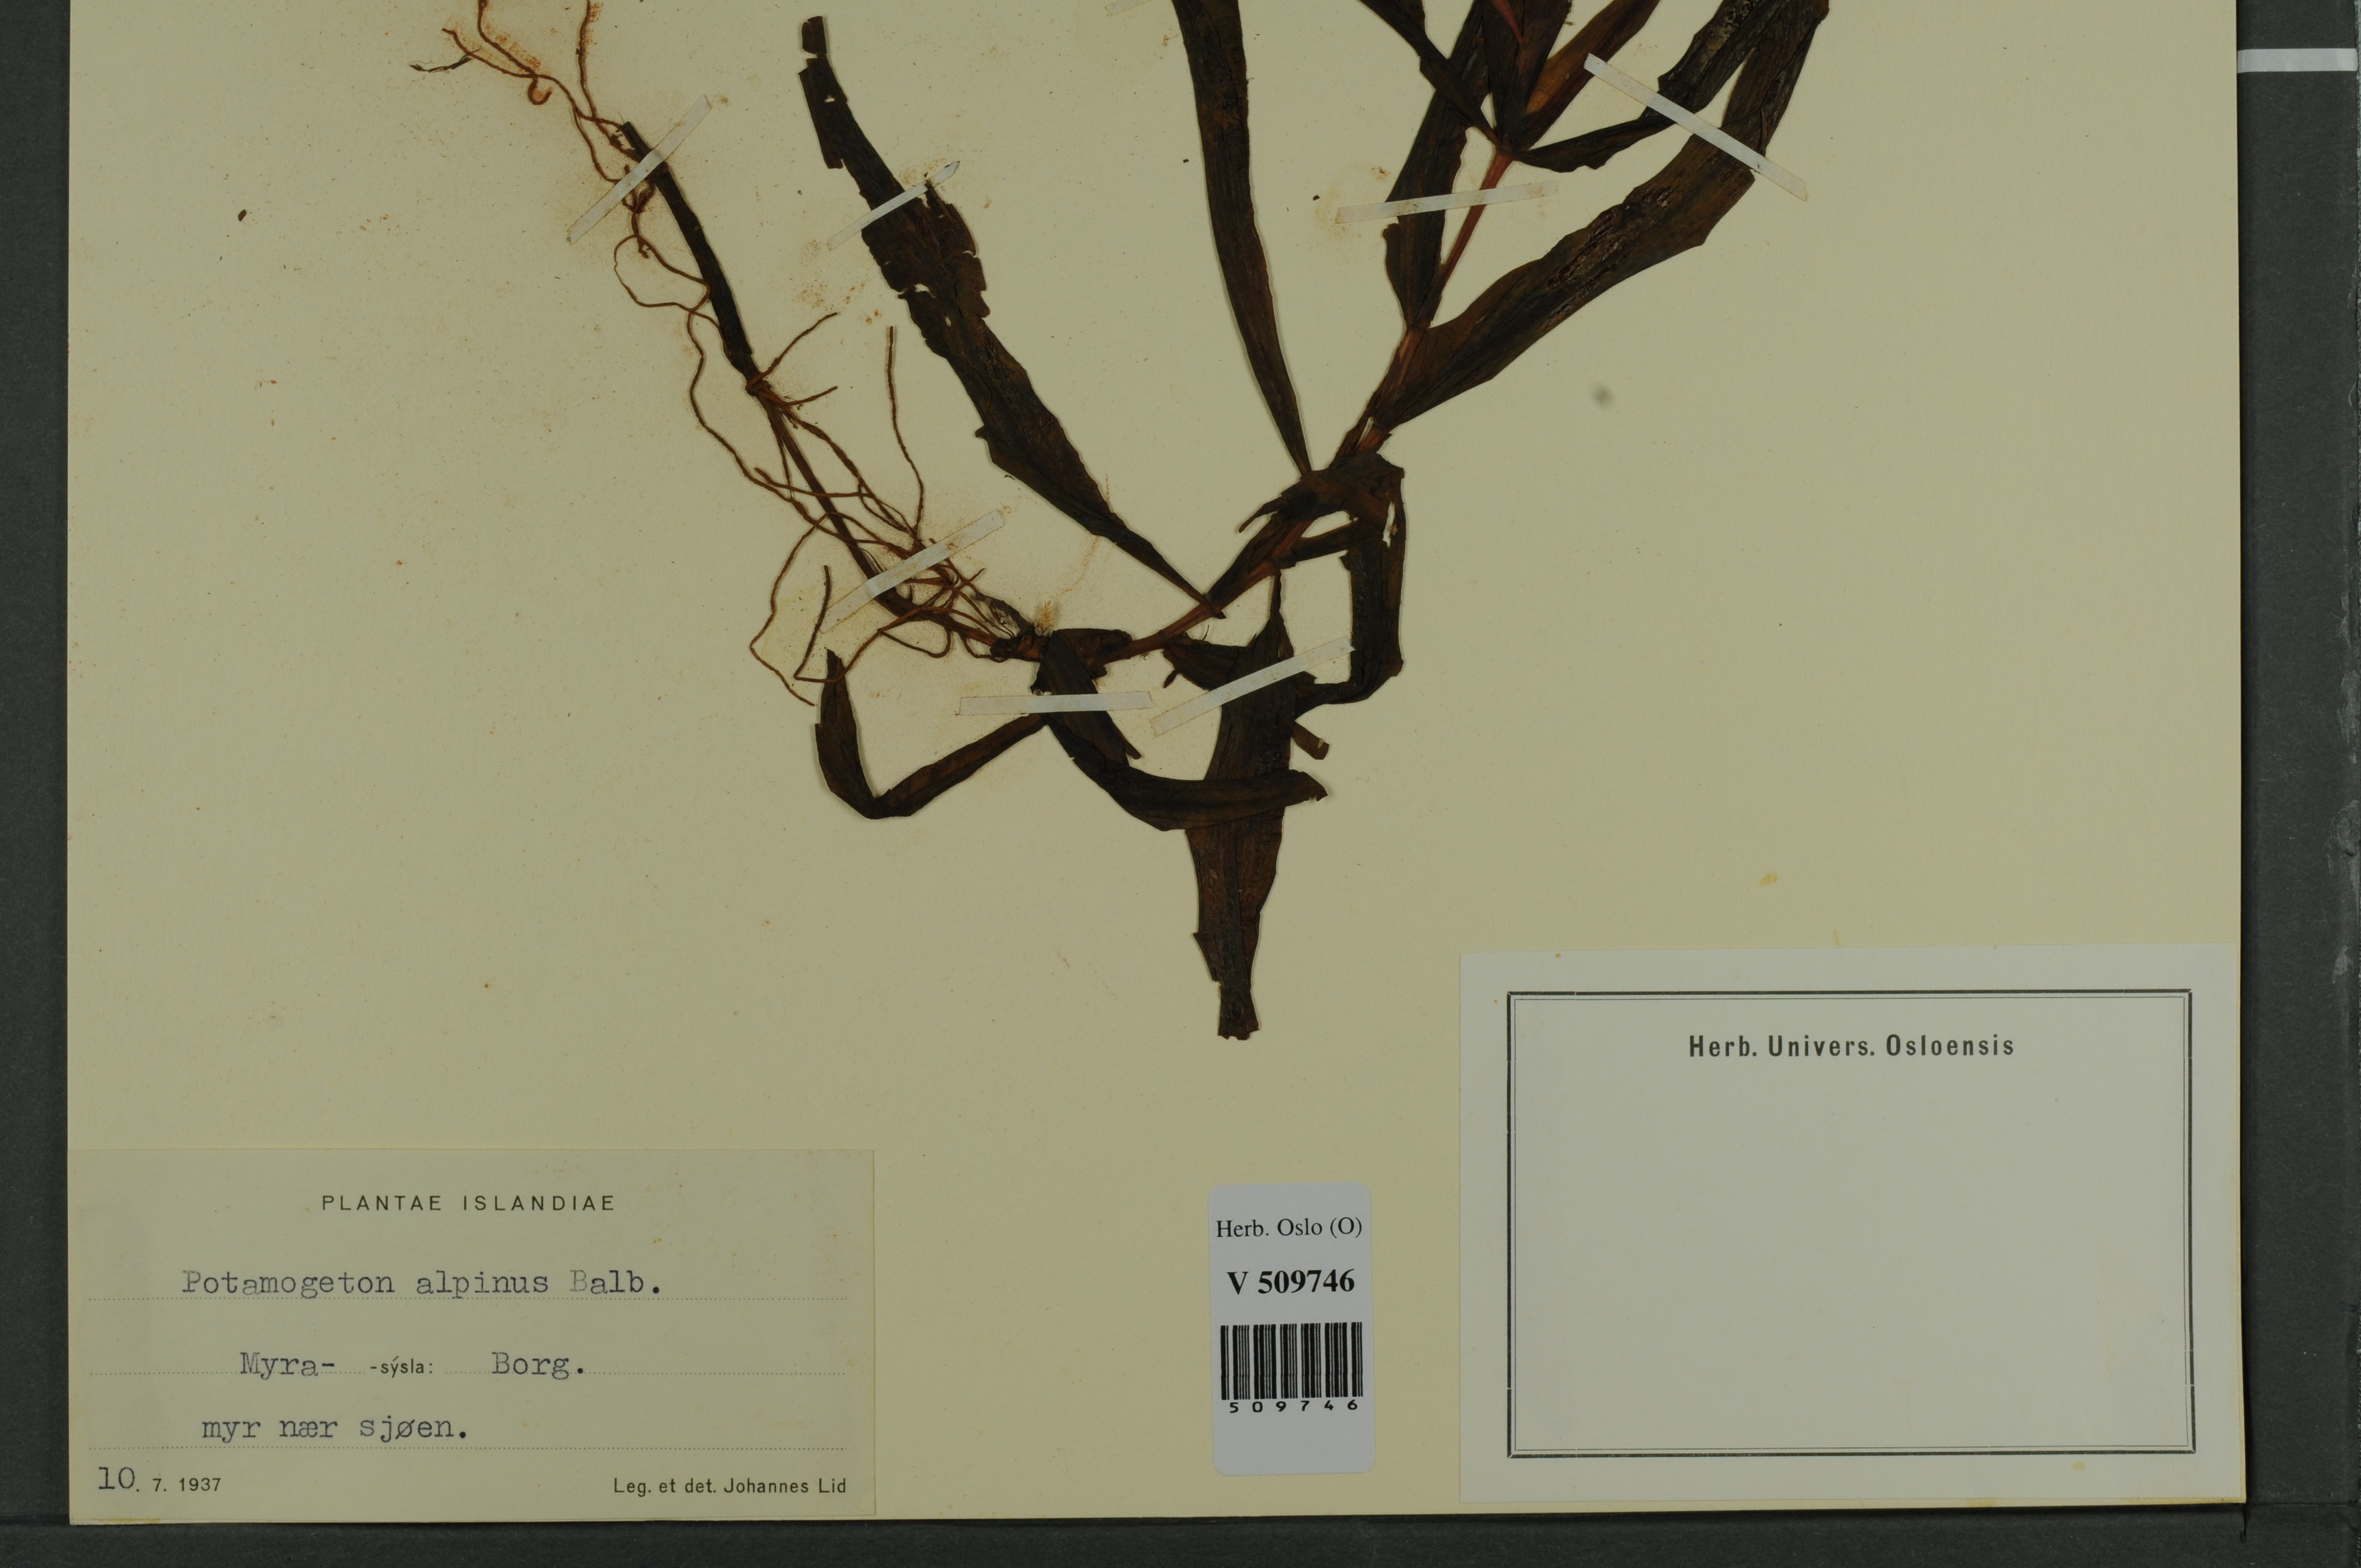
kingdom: Plantae
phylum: Tracheophyta
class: Liliopsida
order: Alismatales
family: Potamogetonaceae
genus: Potamogeton
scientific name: Potamogeton alpinus
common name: Red pondweed
